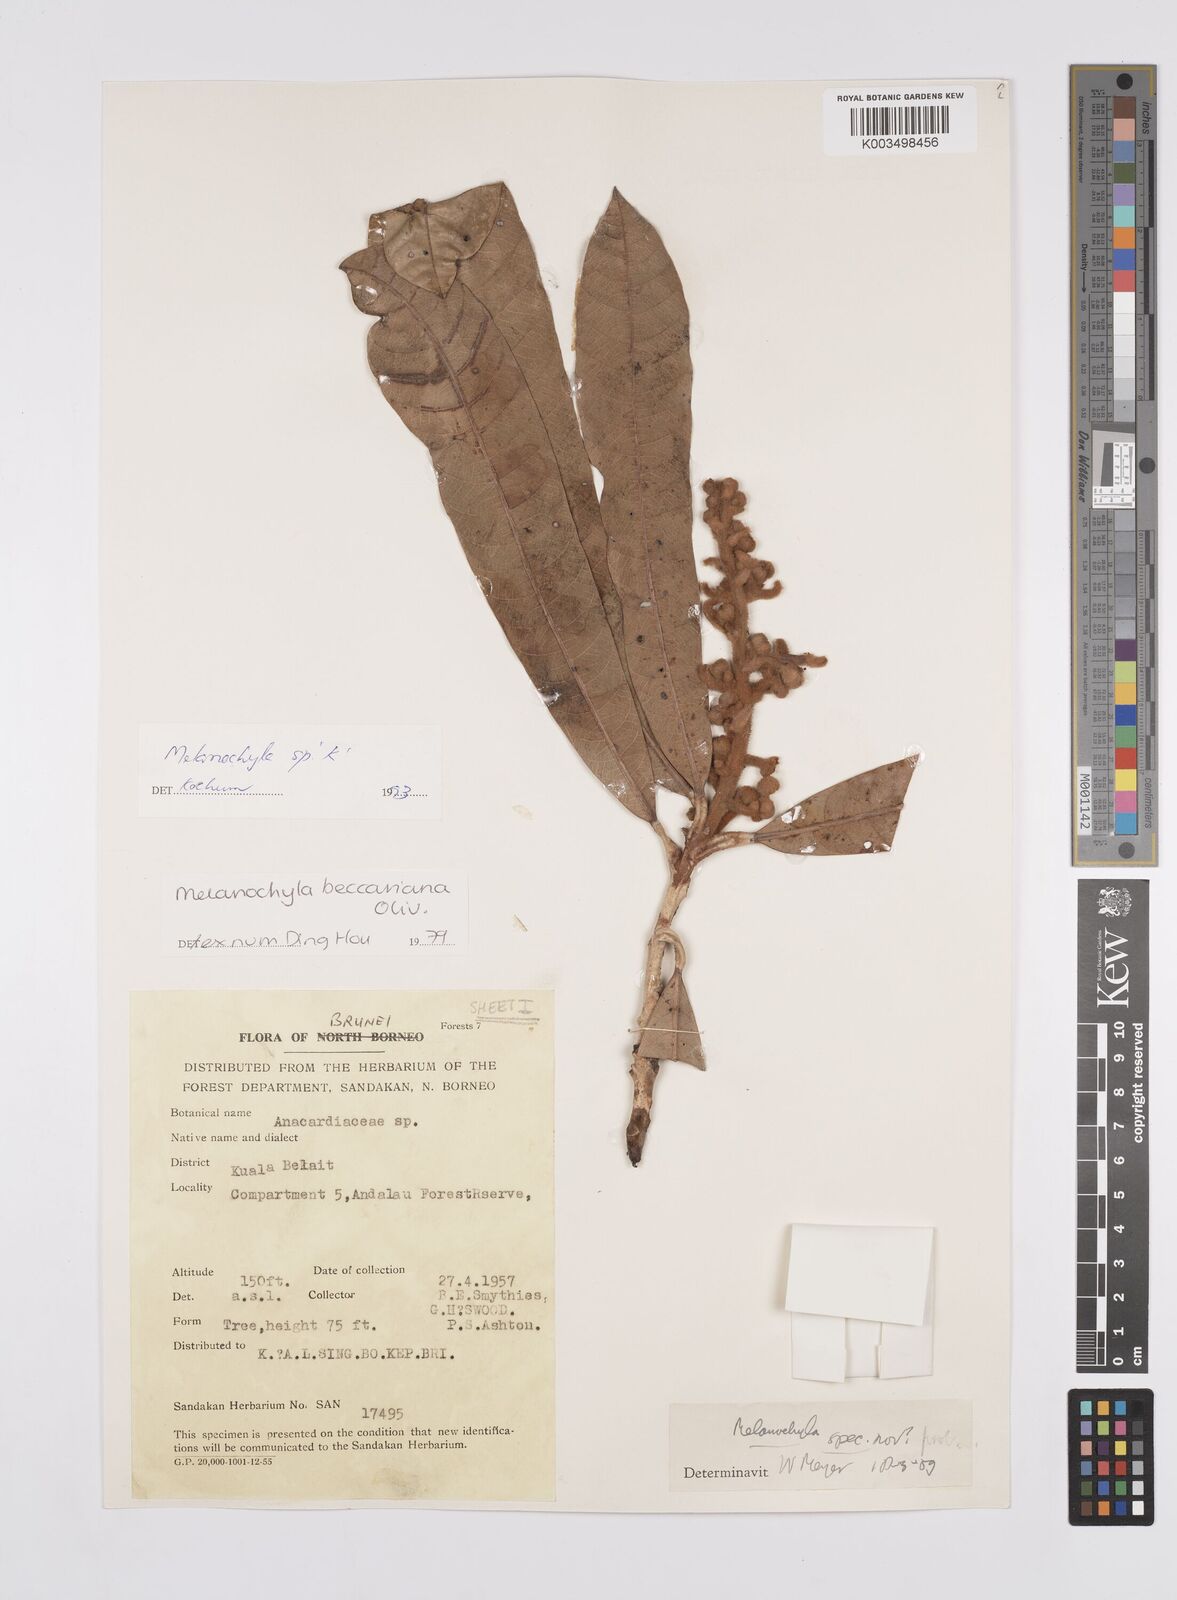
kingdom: Plantae
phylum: Tracheophyta
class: Magnoliopsida
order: Sapindales
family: Anacardiaceae
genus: Melanochyla
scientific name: Melanochyla bullata
